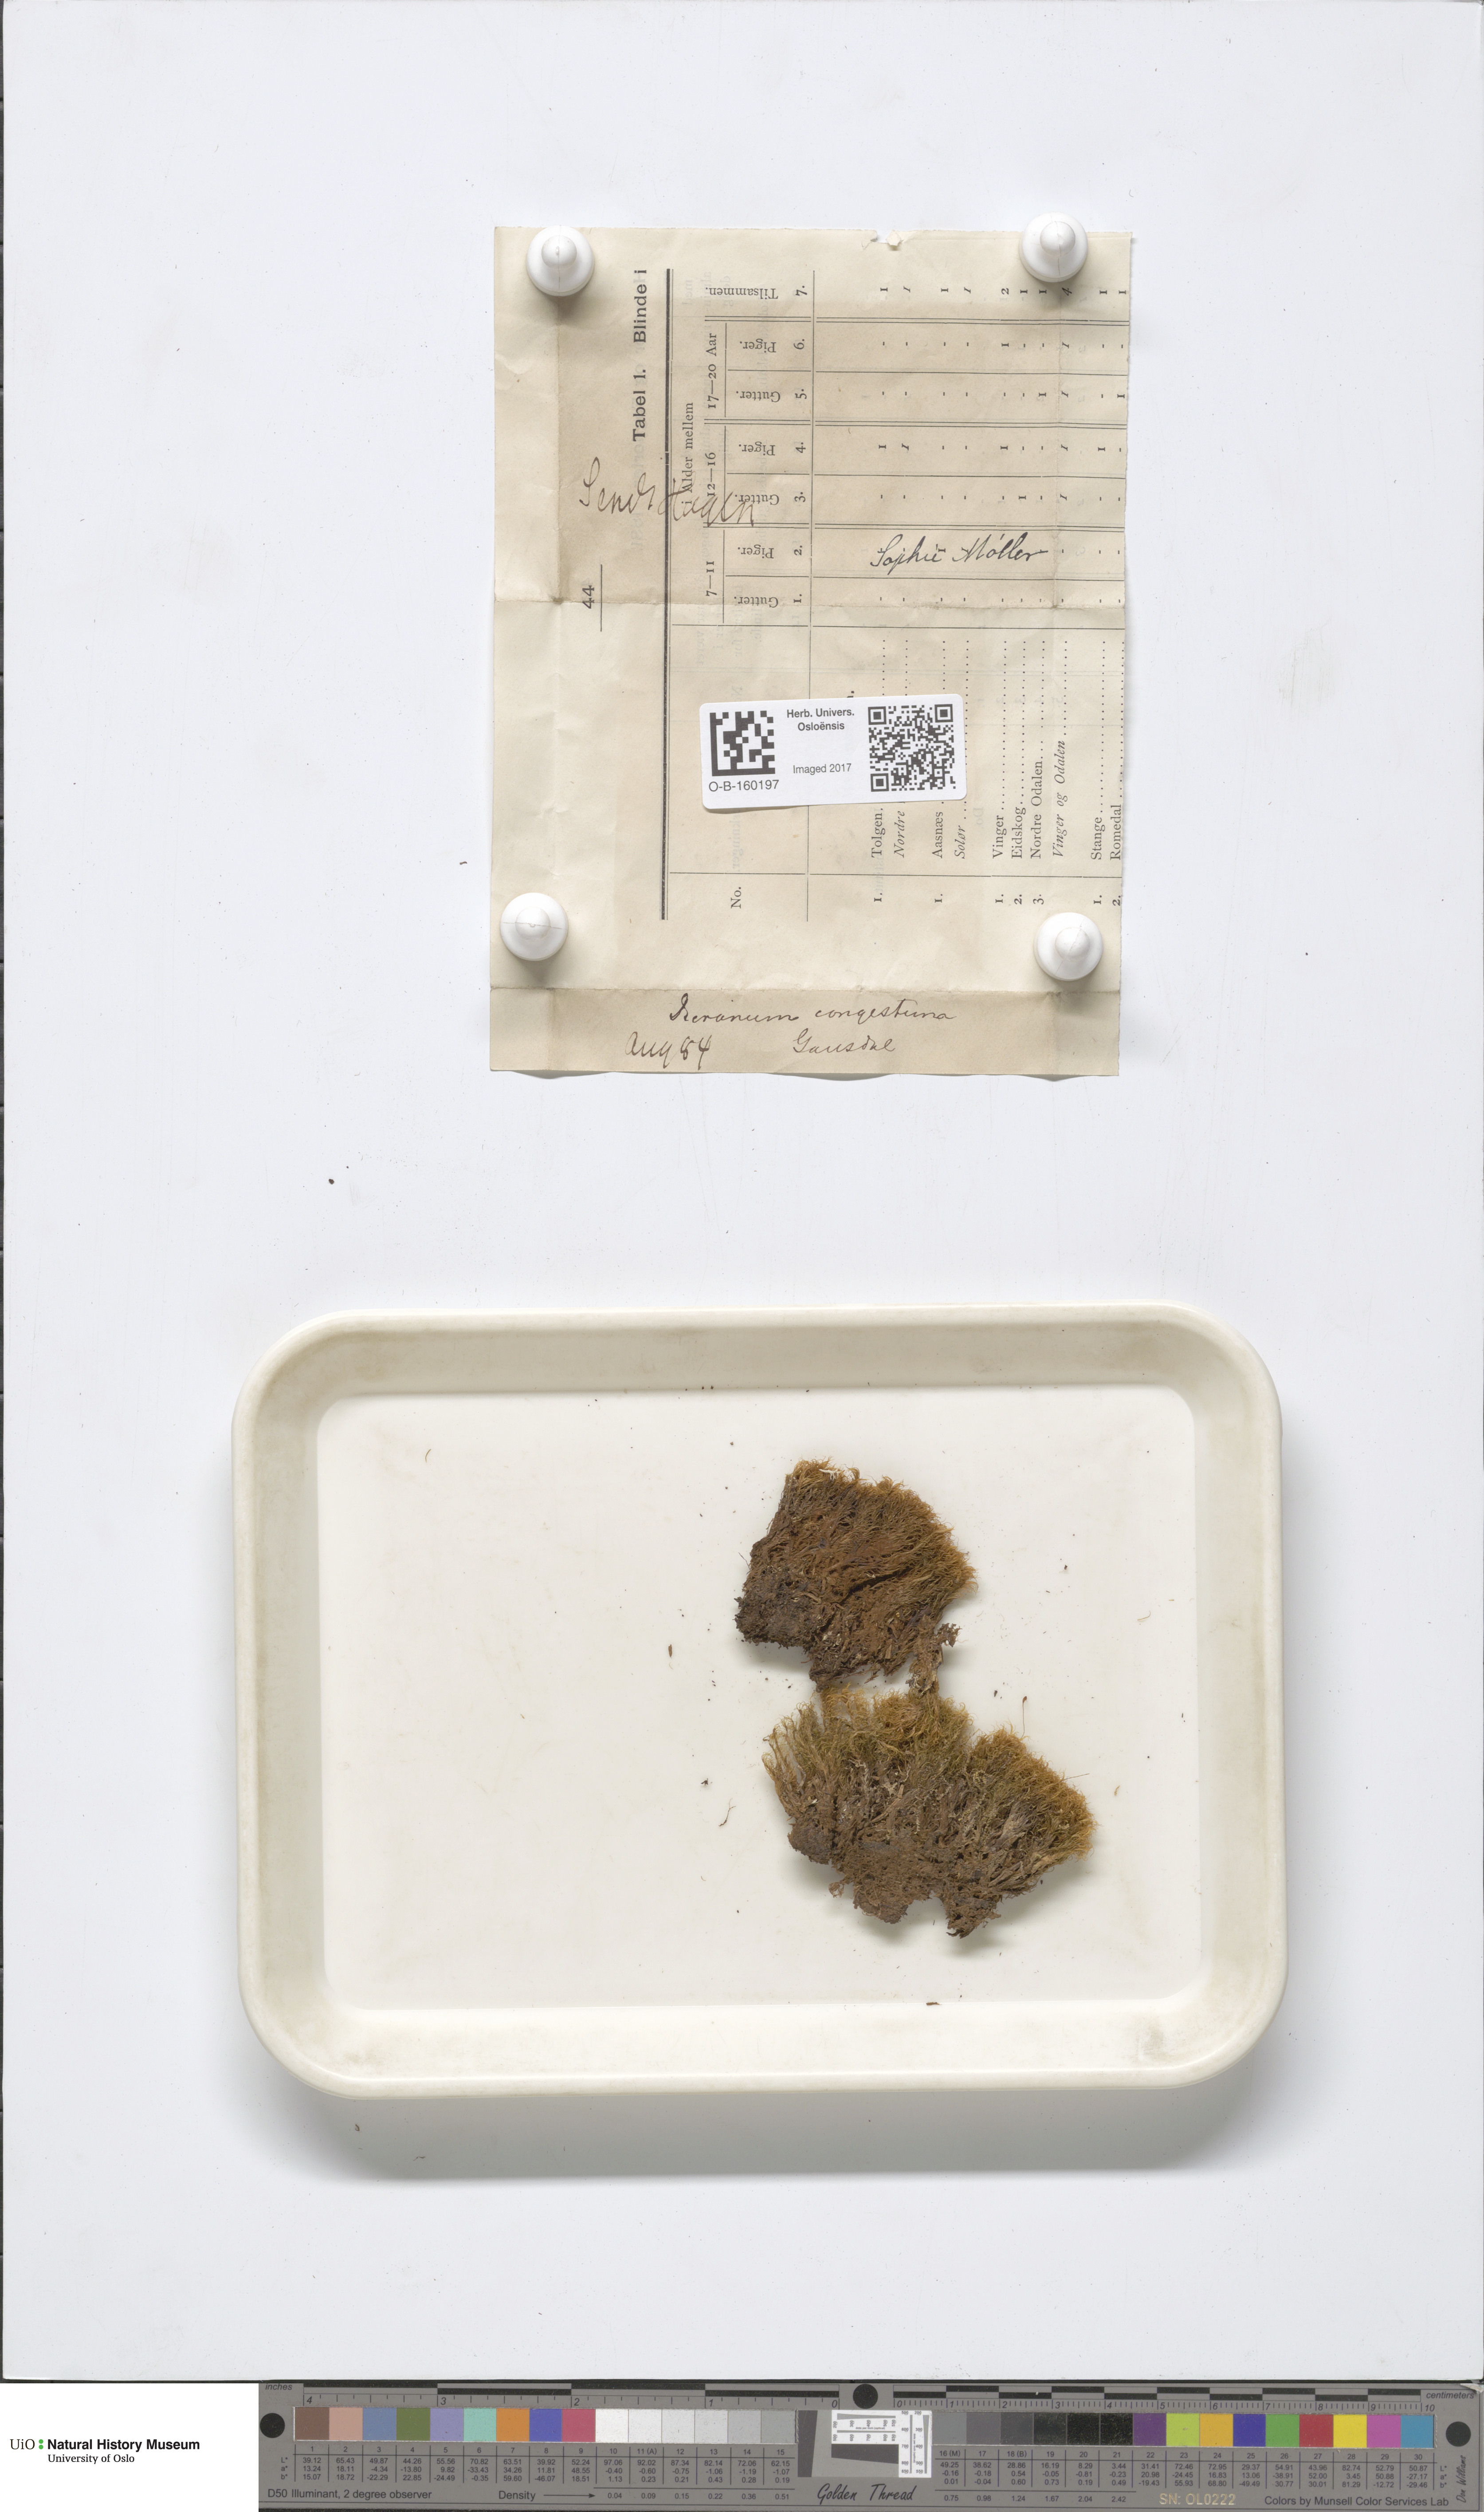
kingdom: Plantae
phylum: Bryophyta
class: Bryopsida
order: Dicranales
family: Dicranaceae
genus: Dicranum
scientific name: Dicranum flexicaule
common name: Bendy heron s-bill moss
